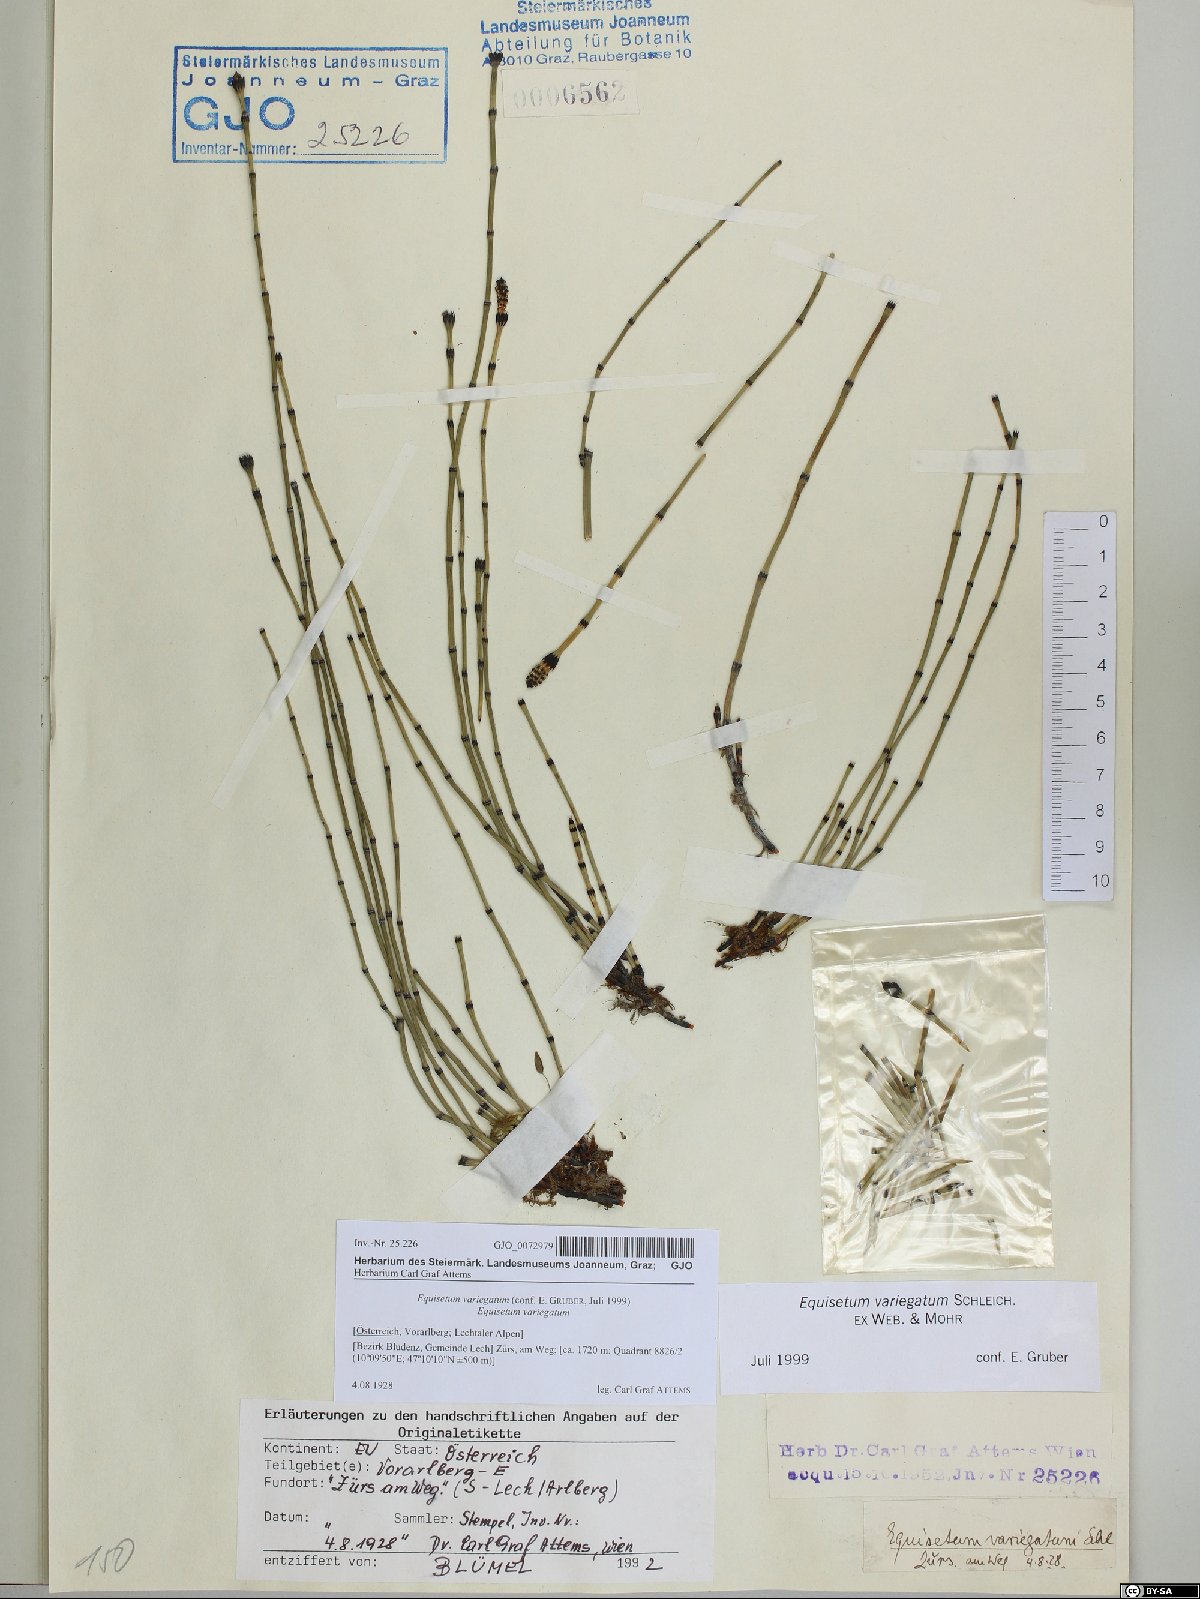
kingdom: Plantae
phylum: Tracheophyta
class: Polypodiopsida
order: Equisetales
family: Equisetaceae
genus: Equisetum
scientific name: Equisetum variegatum
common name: Variegated horsetail
